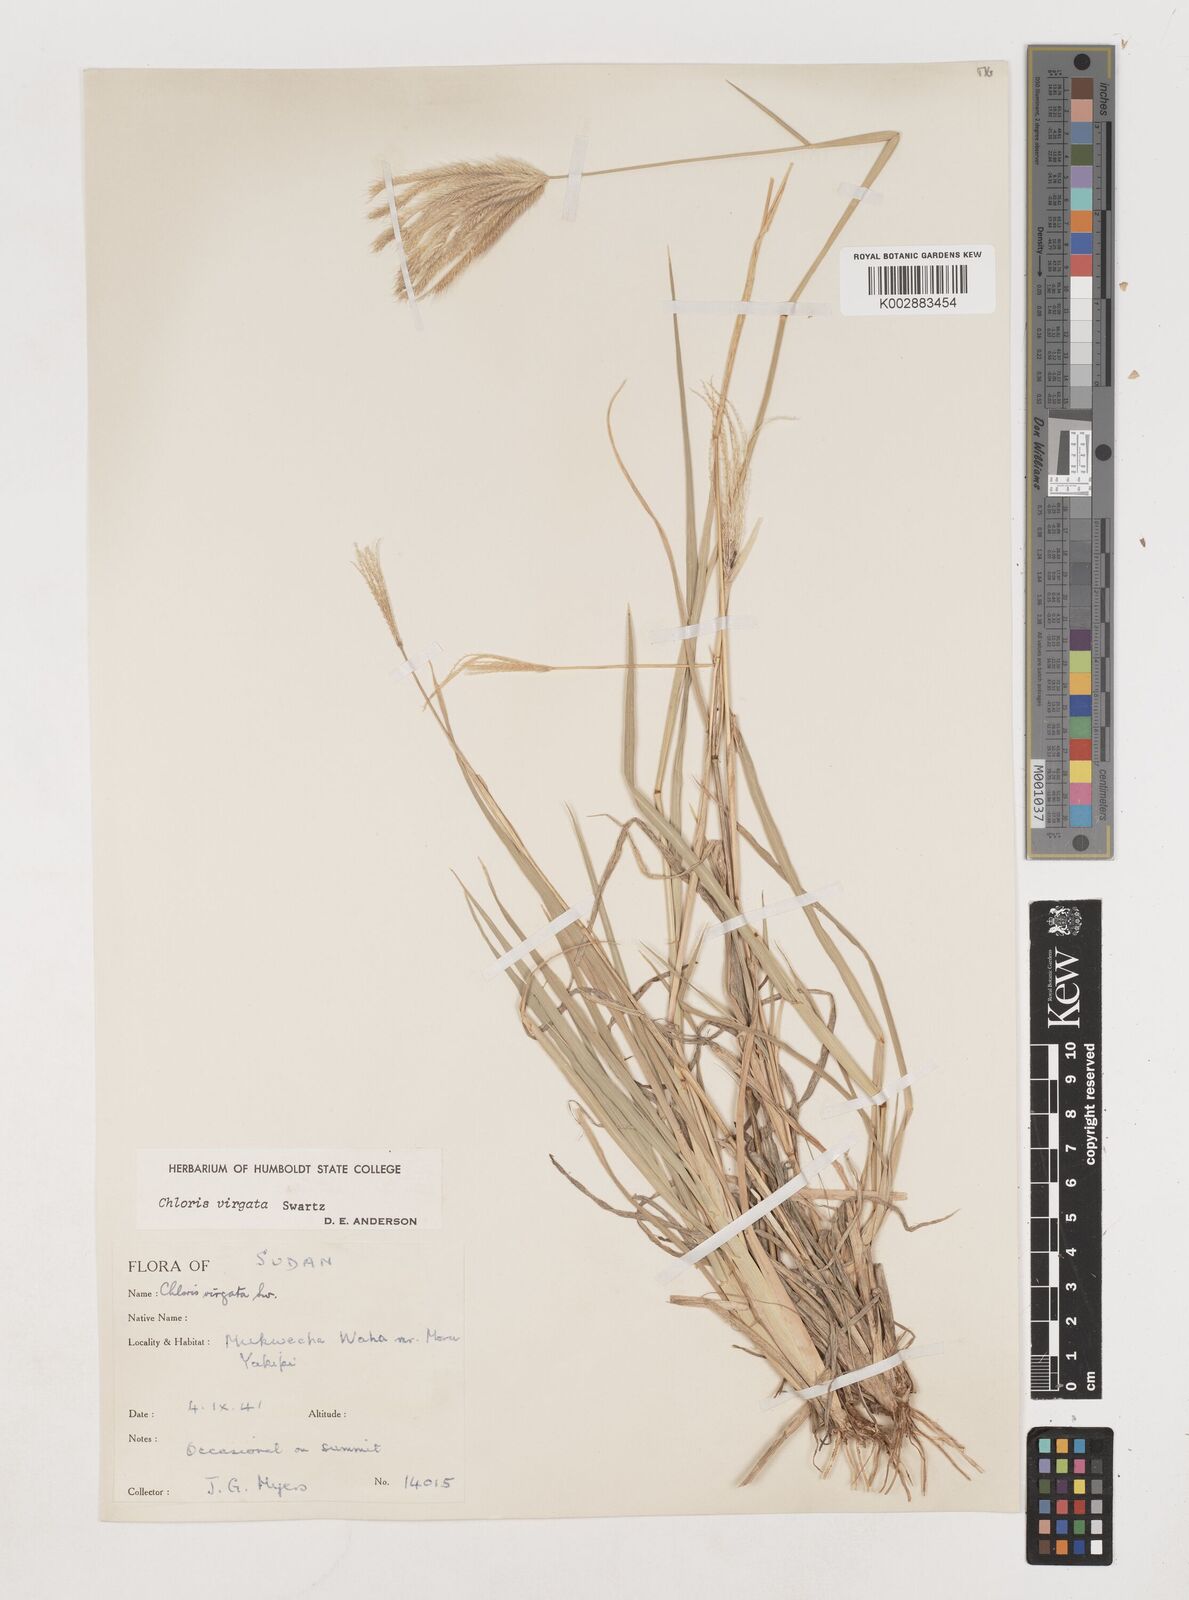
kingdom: Plantae
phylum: Tracheophyta
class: Liliopsida
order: Poales
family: Poaceae
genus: Chloris
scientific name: Chloris virgata
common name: Feathery rhodes-grass
